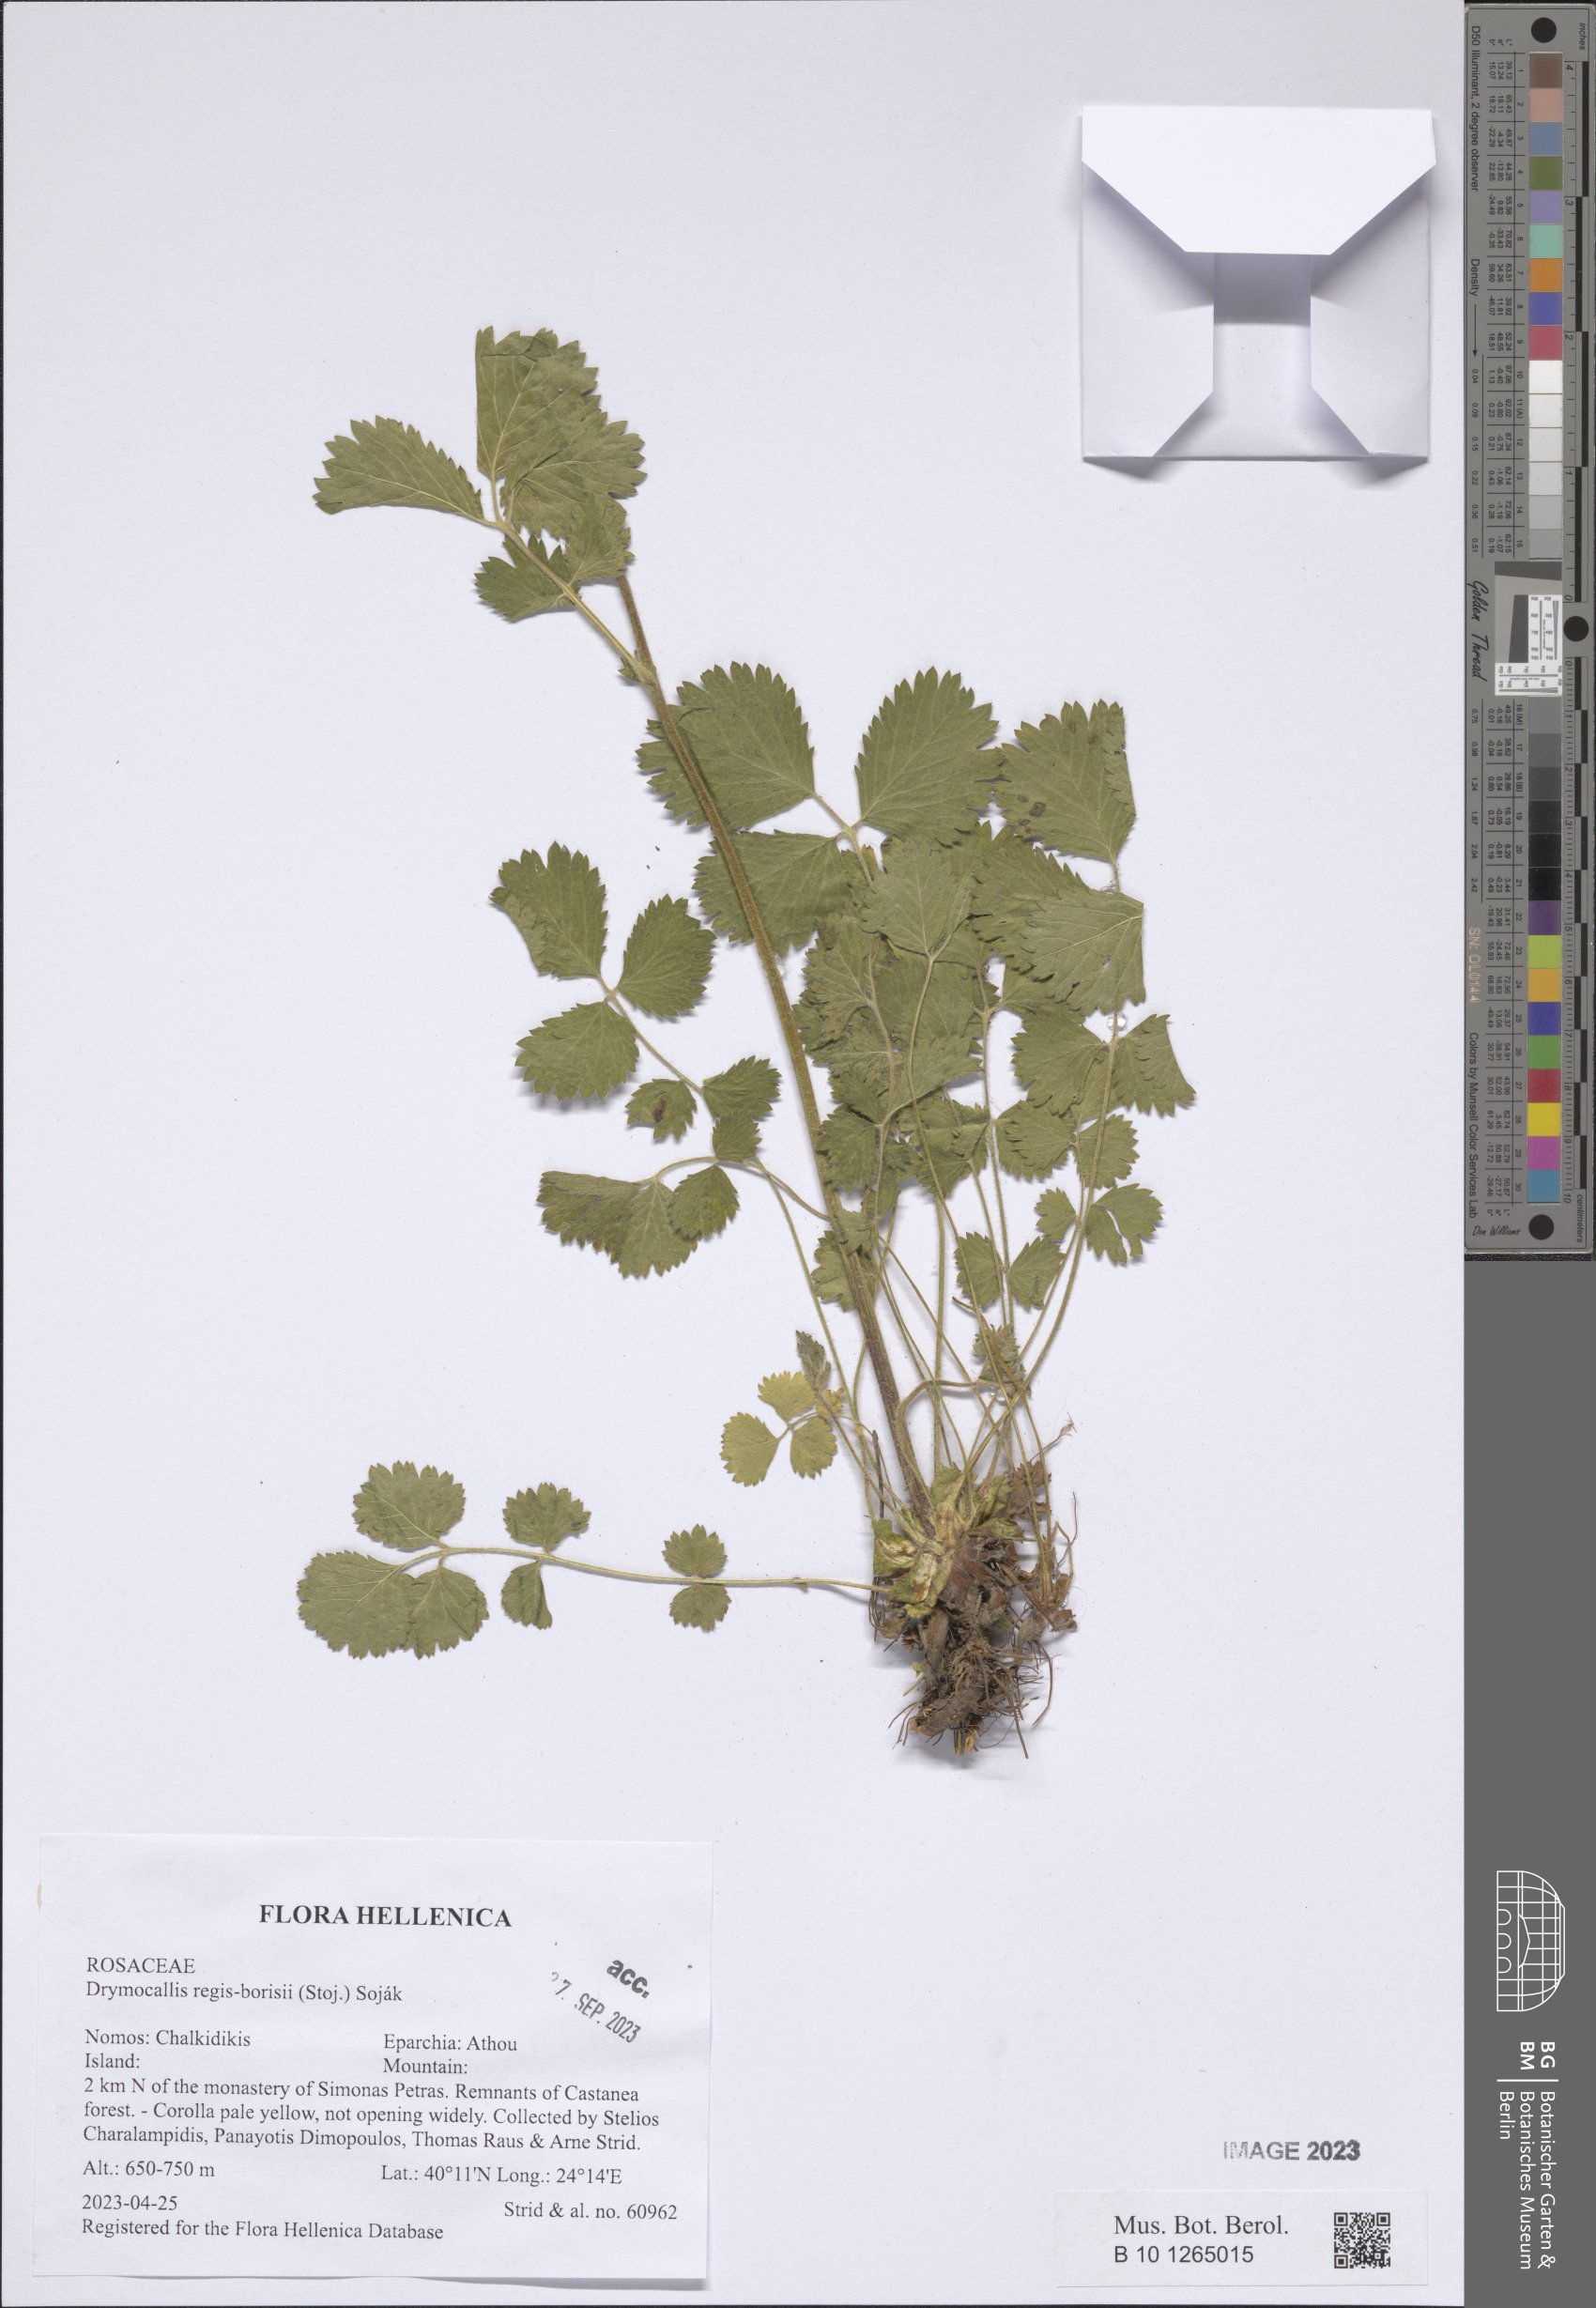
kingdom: Plantae
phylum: Tracheophyta
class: Magnoliopsida
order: Rosales
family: Rosaceae
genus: Drymocallis
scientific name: Drymocallis regisborisii
